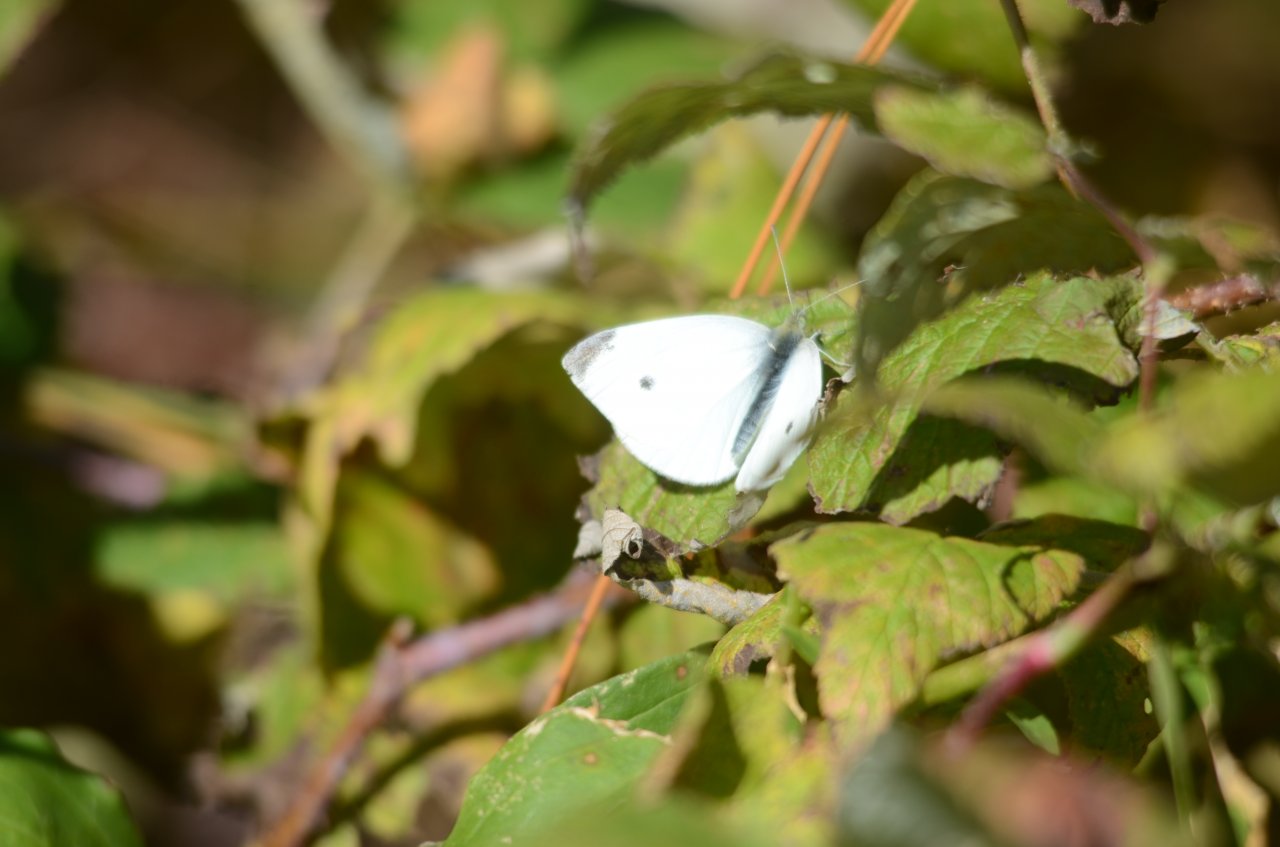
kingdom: Animalia
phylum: Arthropoda
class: Insecta
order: Lepidoptera
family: Pieridae
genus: Pieris
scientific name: Pieris rapae
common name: Cabbage White
